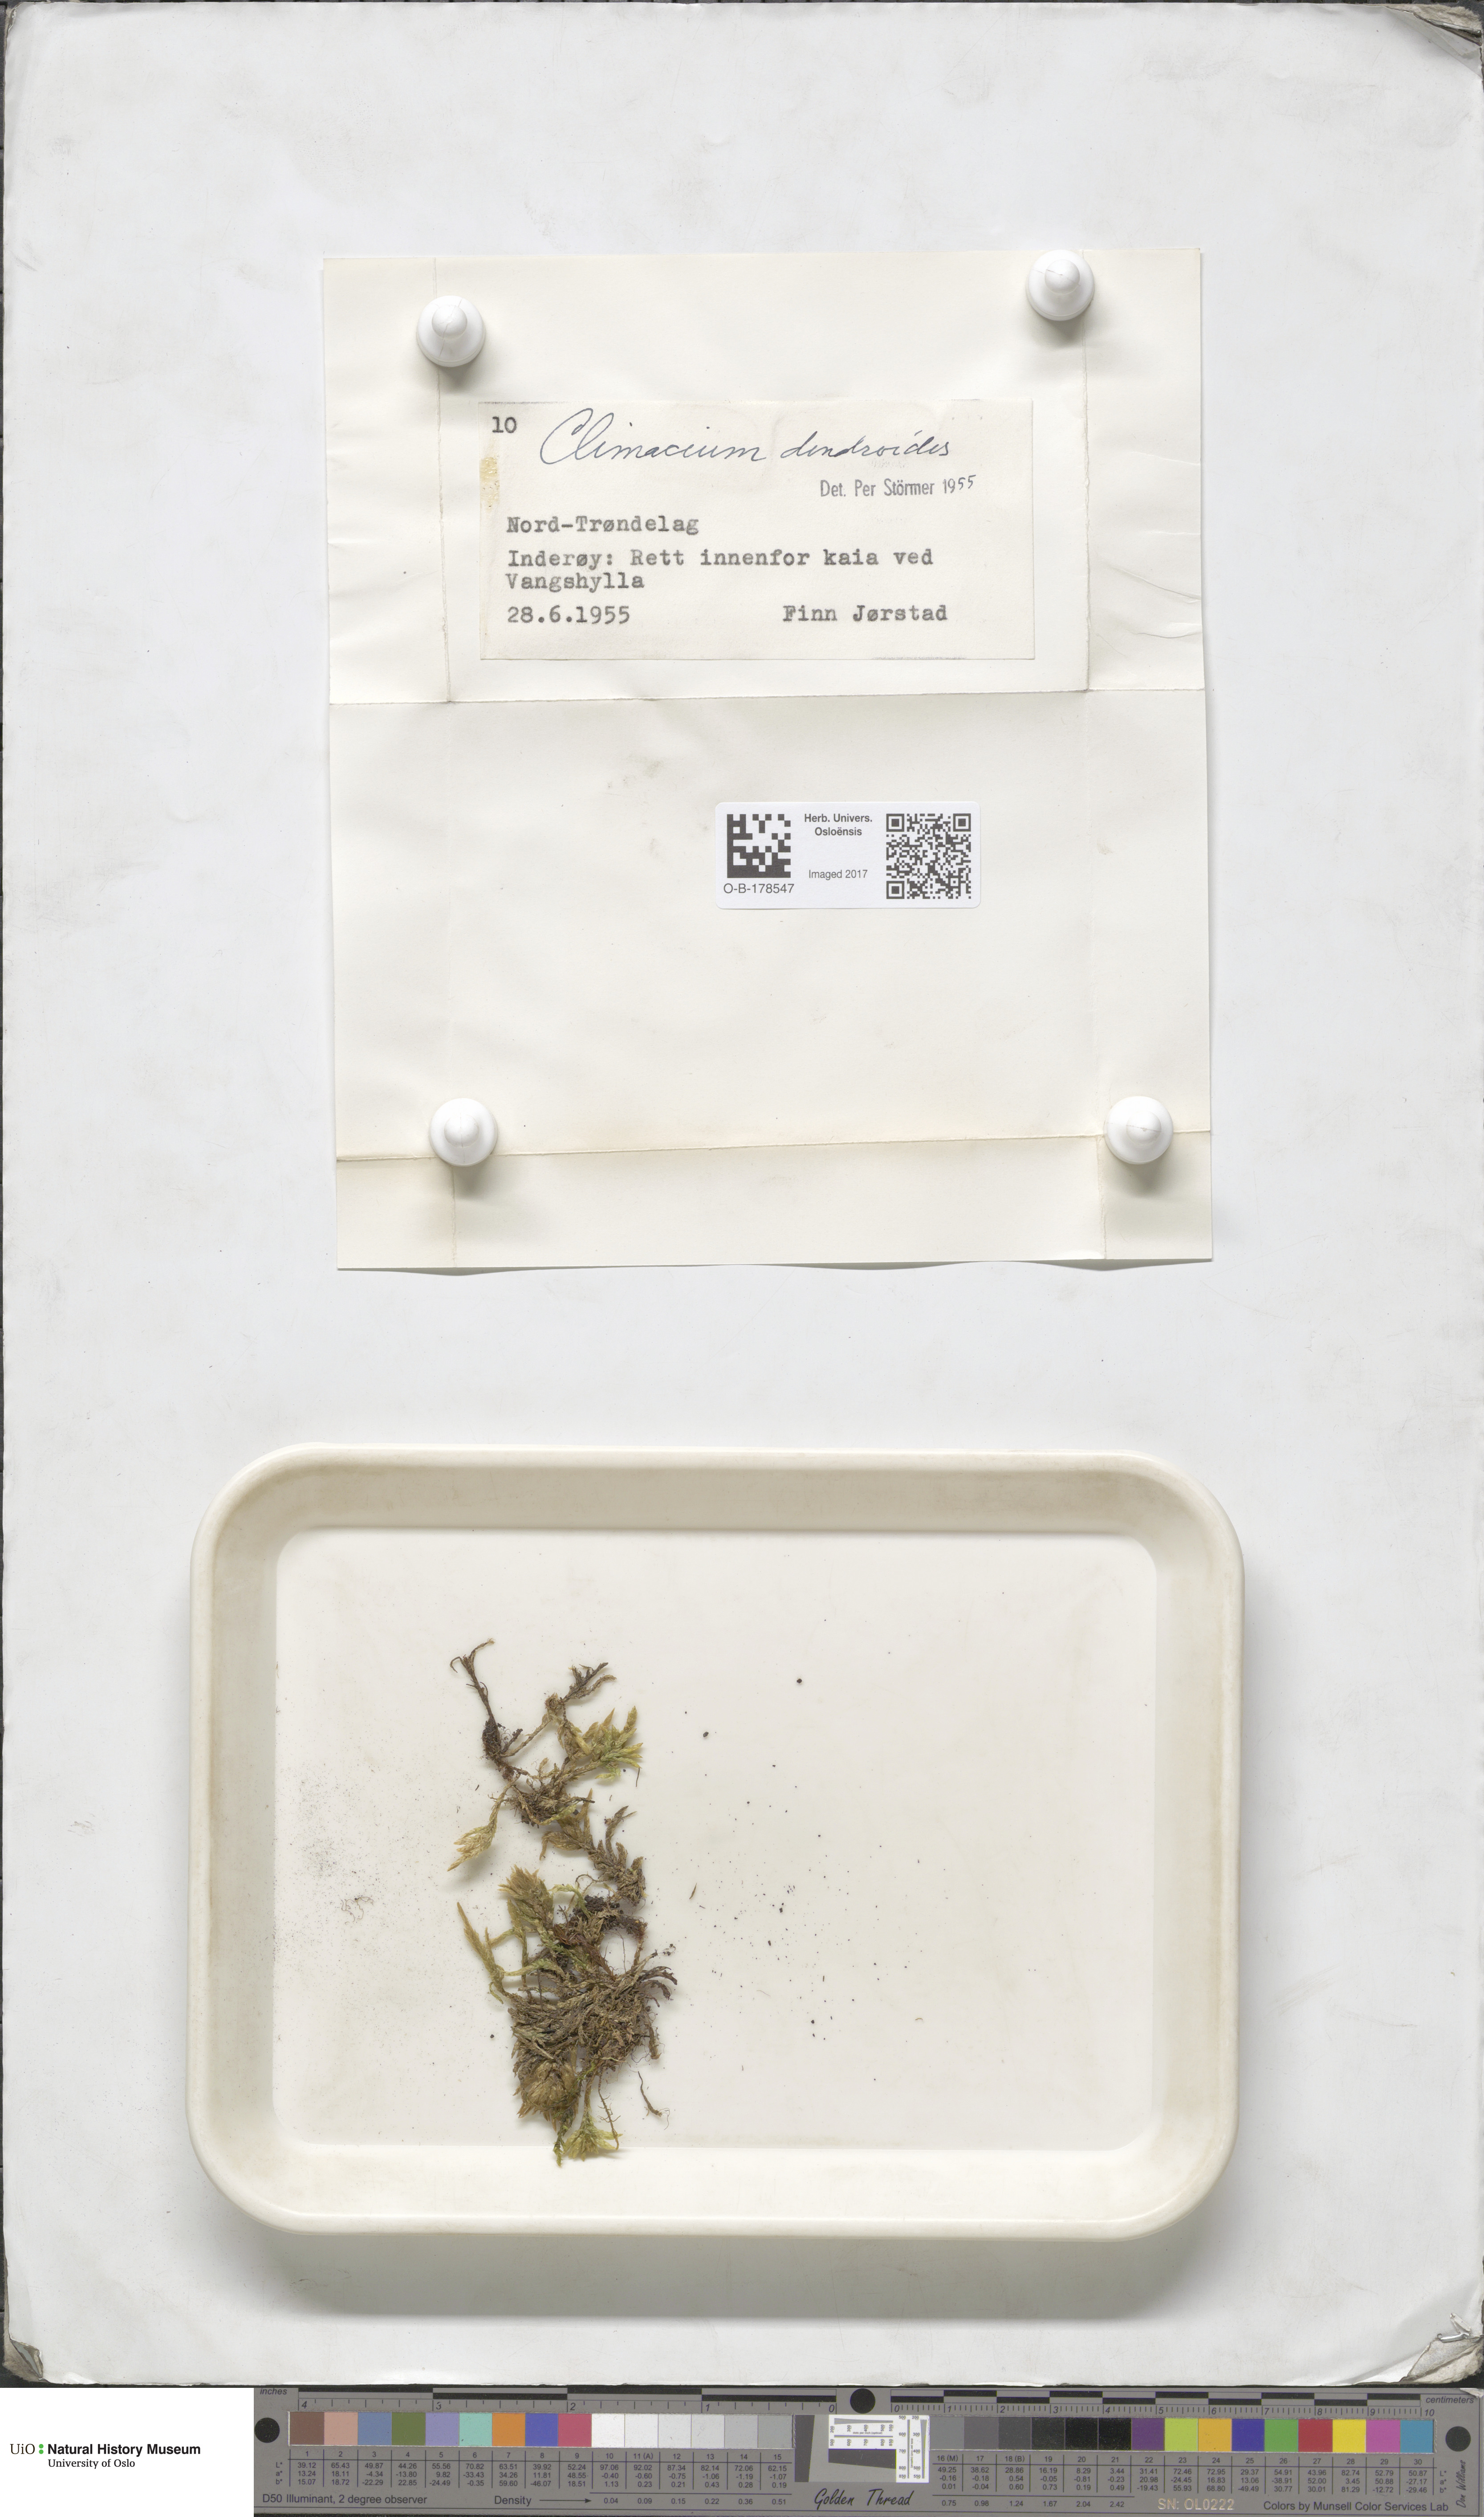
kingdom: Plantae
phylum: Bryophyta
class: Bryopsida
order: Hypnales
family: Climaciaceae
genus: Climacium
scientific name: Climacium dendroides
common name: Northern tree moss
